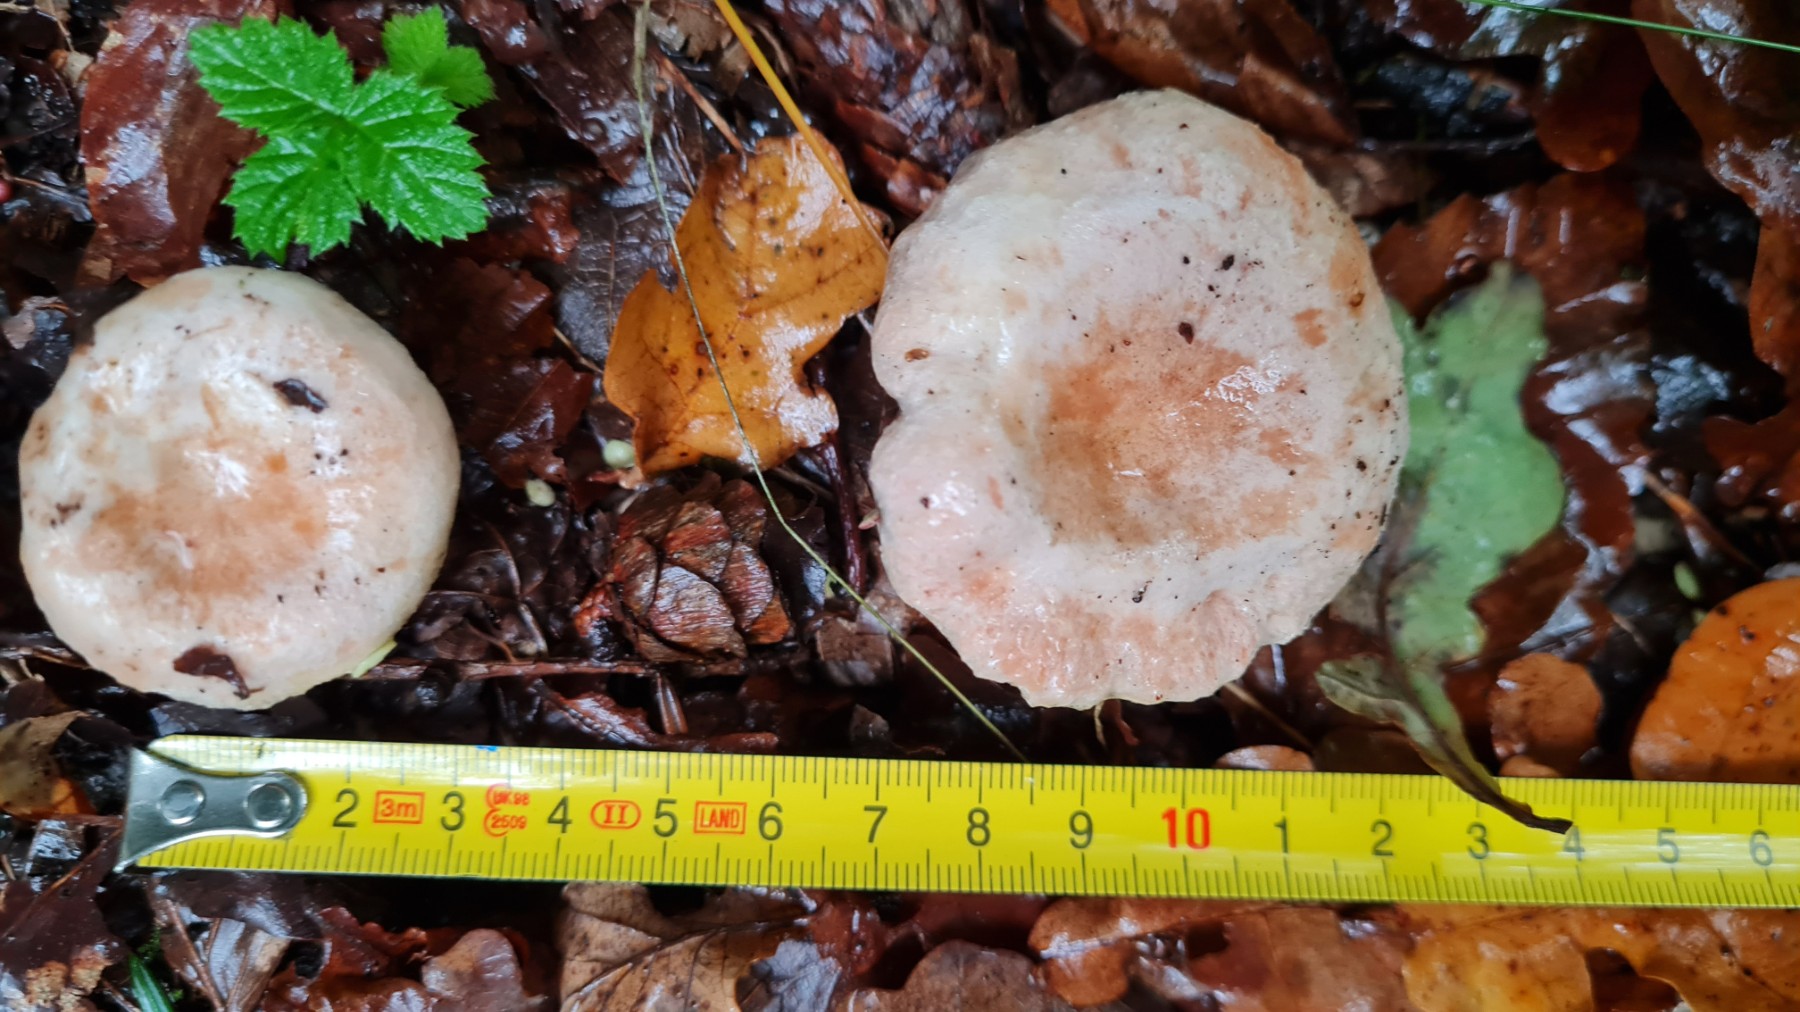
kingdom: Fungi
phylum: Basidiomycota
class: Agaricomycetes
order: Russulales
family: Russulaceae
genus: Lactarius
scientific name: Lactarius pubescens
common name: dunet mælkehat
